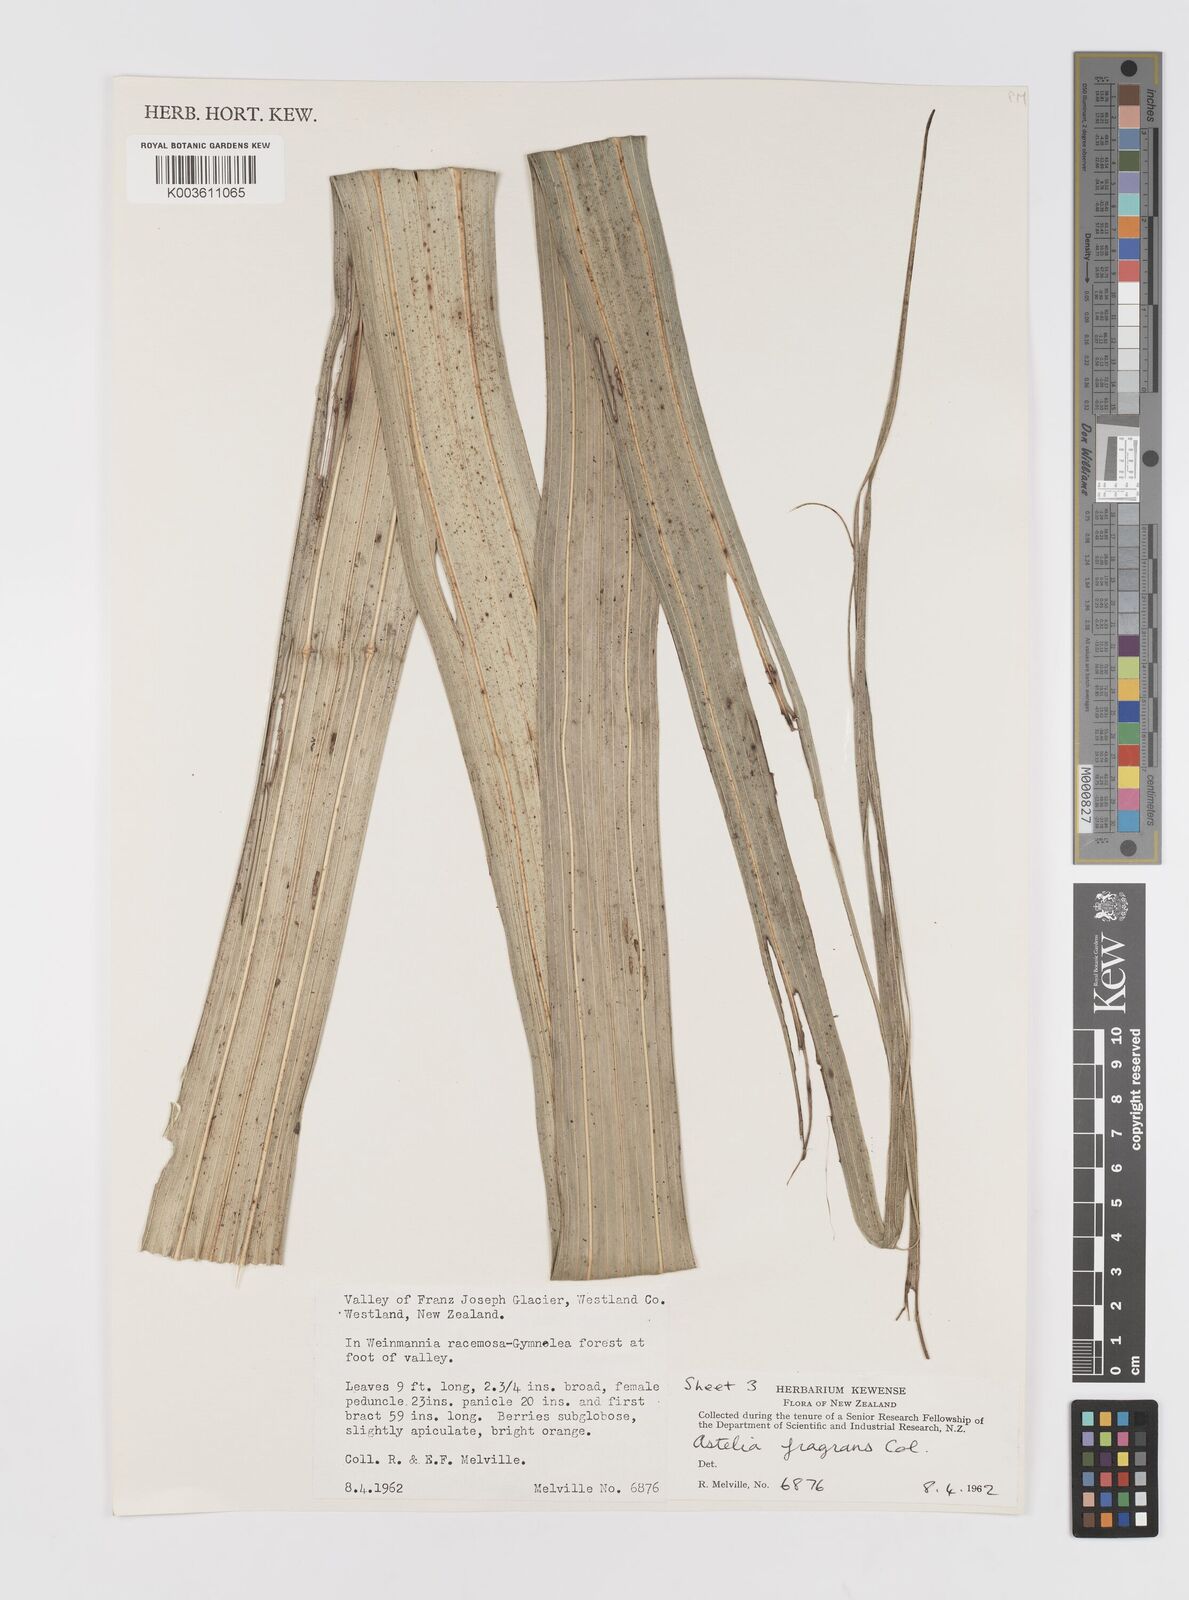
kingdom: Plantae
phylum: Tracheophyta
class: Liliopsida
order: Asparagales
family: Asteliaceae
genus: Astelia
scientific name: Astelia fragrans
